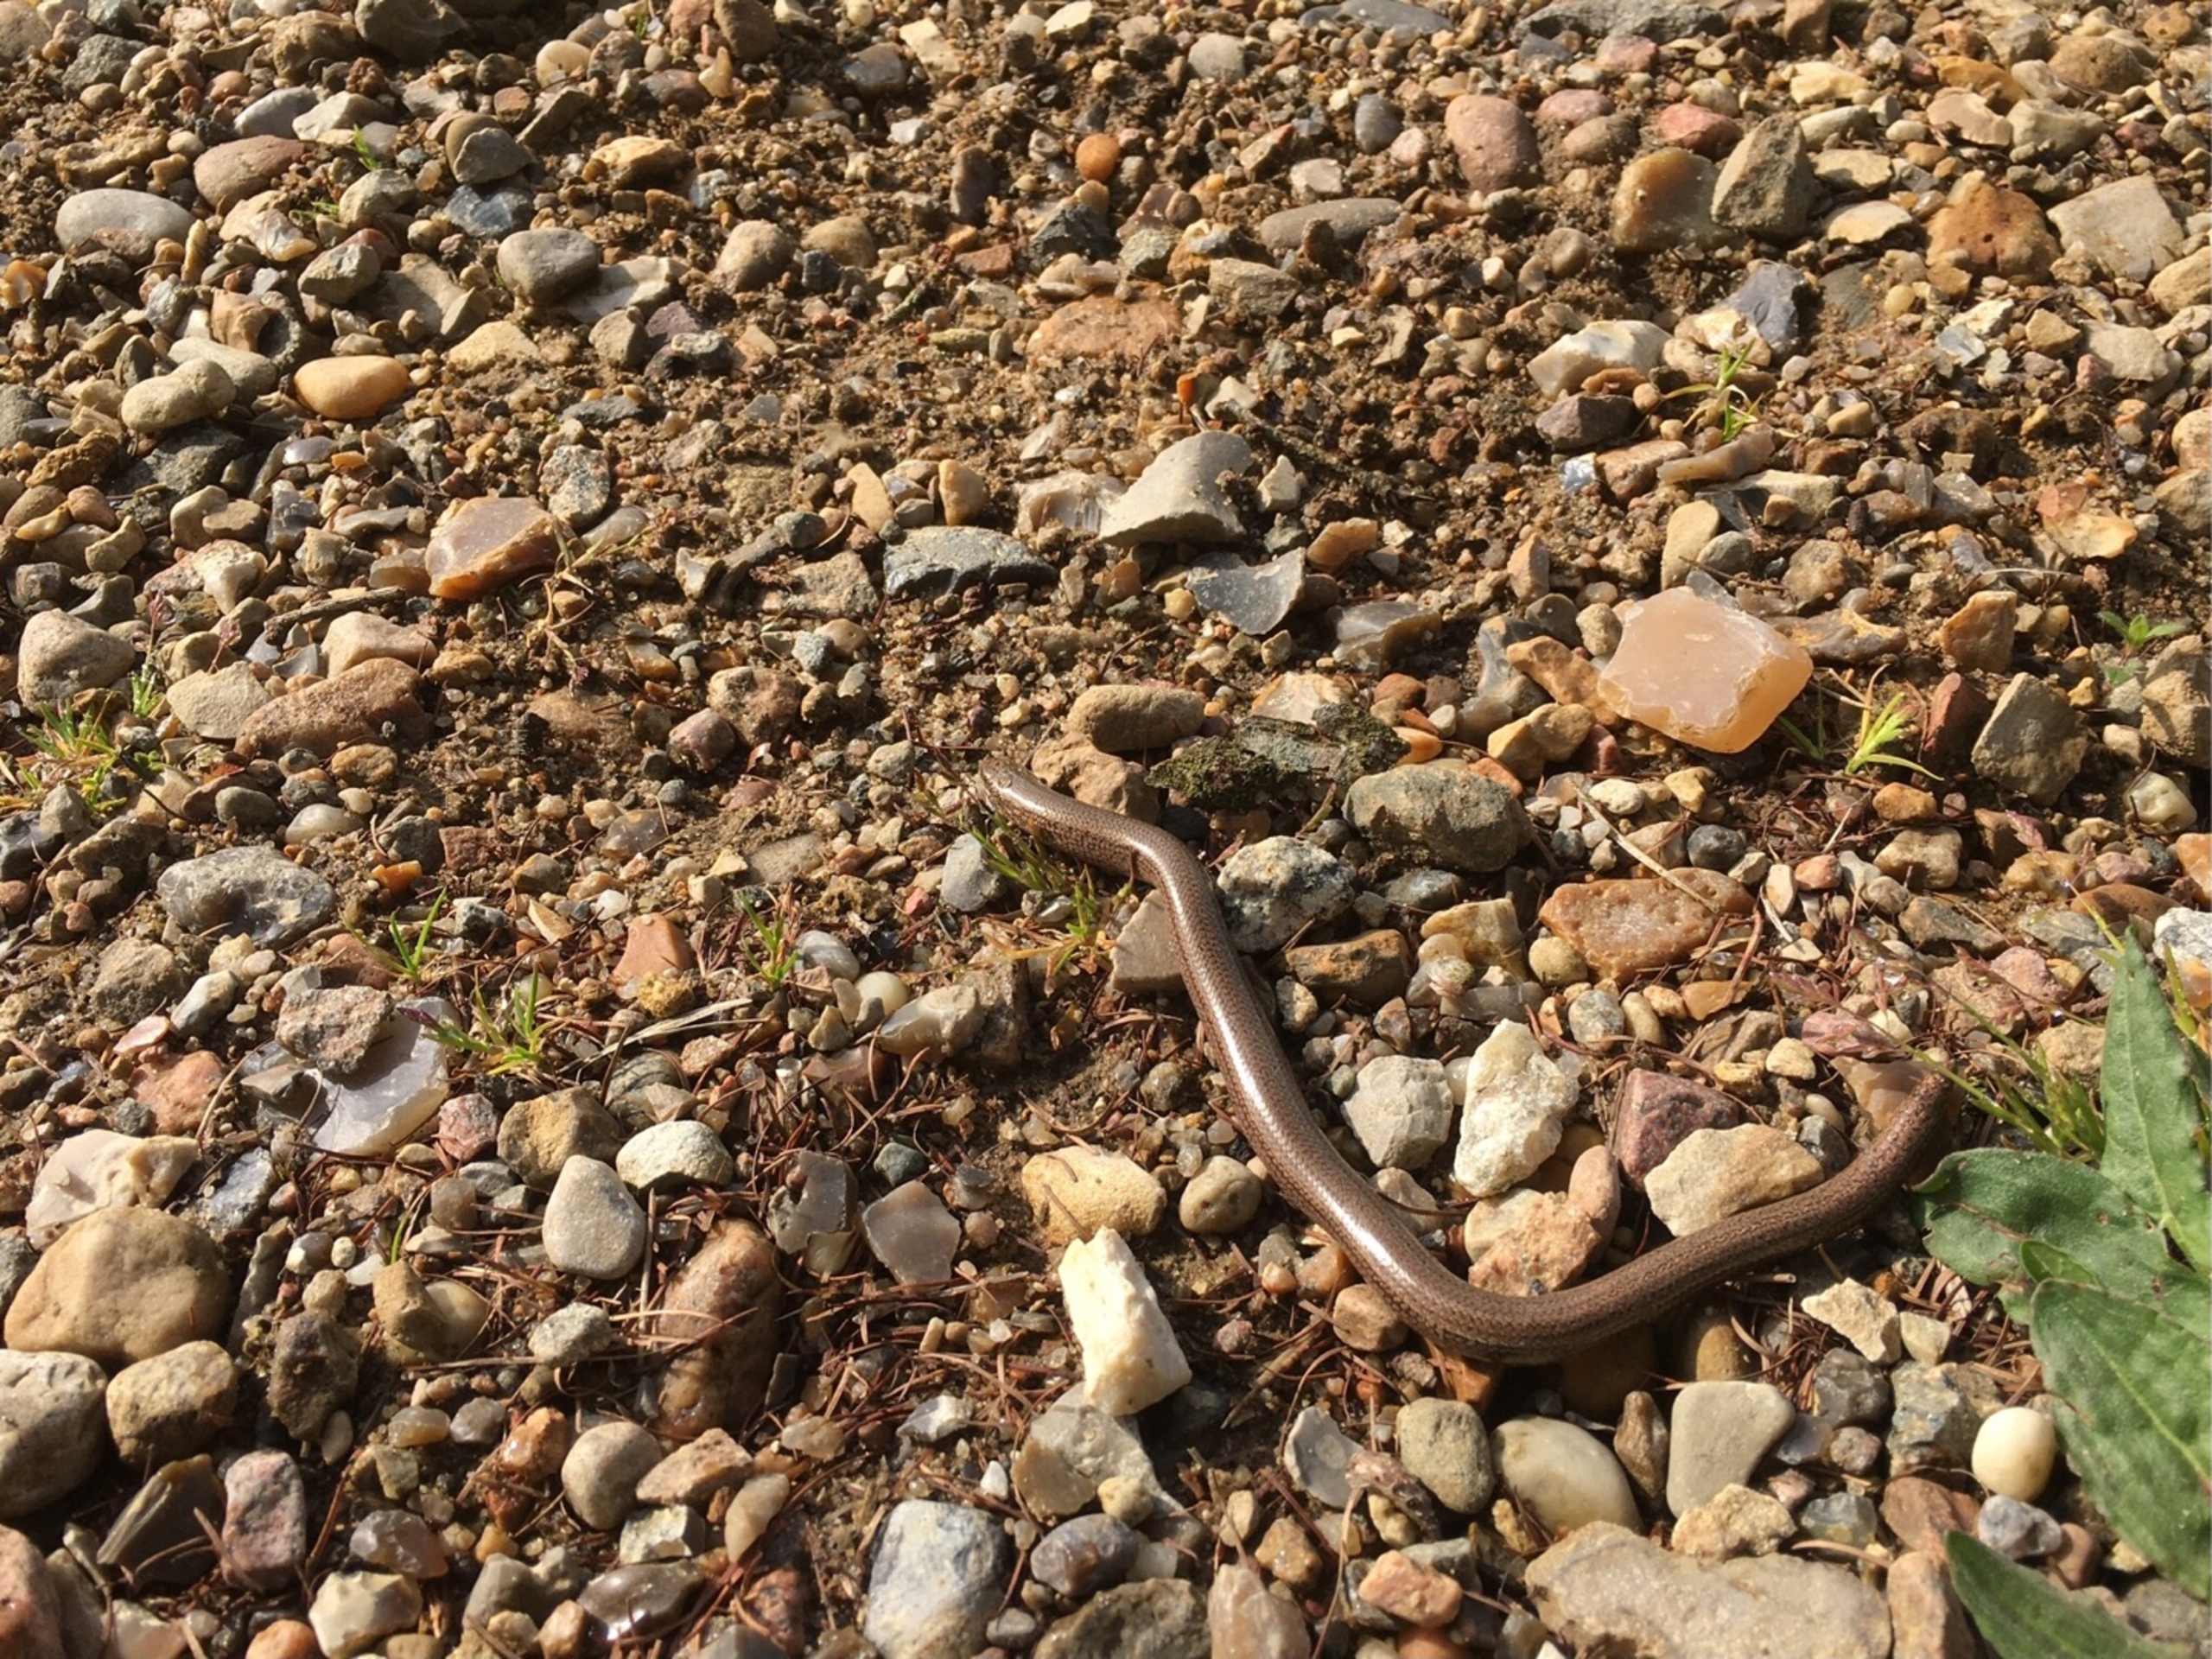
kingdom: Animalia
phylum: Chordata
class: Squamata
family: Anguidae
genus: Anguis
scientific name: Anguis fragilis
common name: Stålorm
